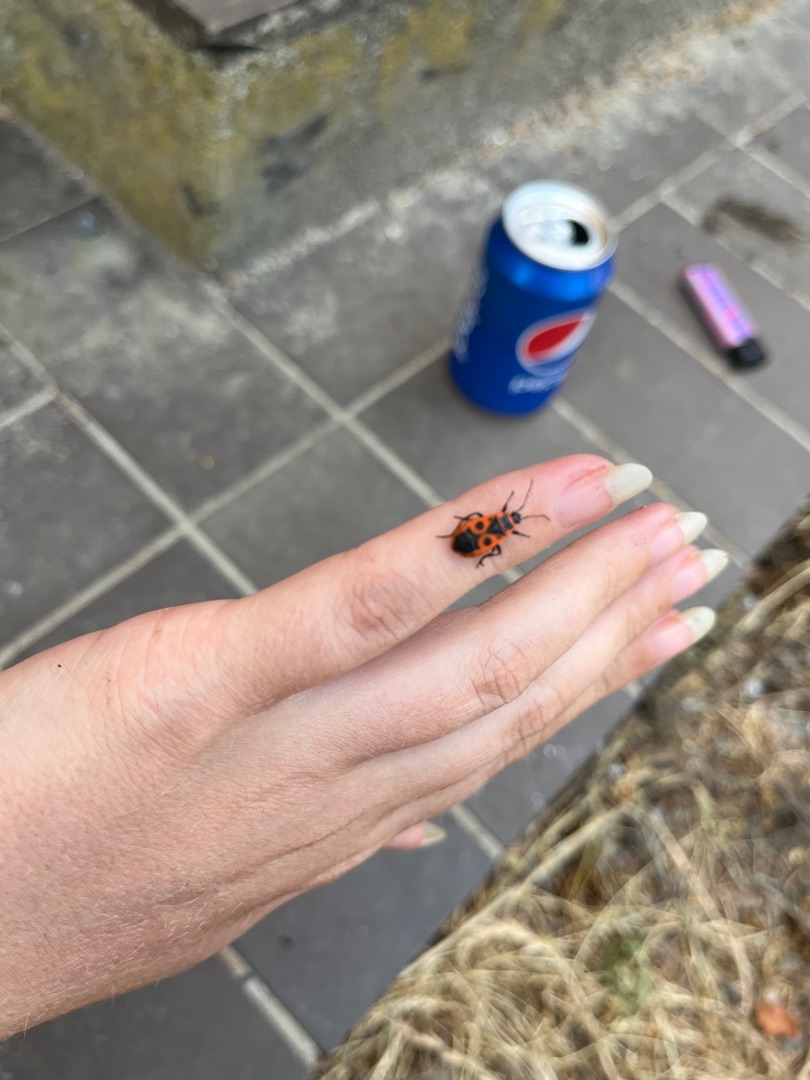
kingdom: Animalia
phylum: Arthropoda
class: Insecta
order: Hemiptera
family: Pyrrhocoridae
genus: Pyrrhocoris
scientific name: Pyrrhocoris apterus
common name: Ildtæge
